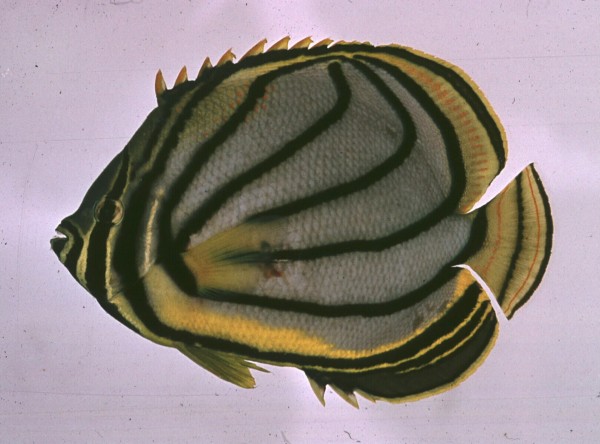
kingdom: Animalia
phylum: Chordata
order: Perciformes
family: Chaetodontidae
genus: Chaetodon
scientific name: Chaetodon meyeri
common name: Meyer's butterflyfish
